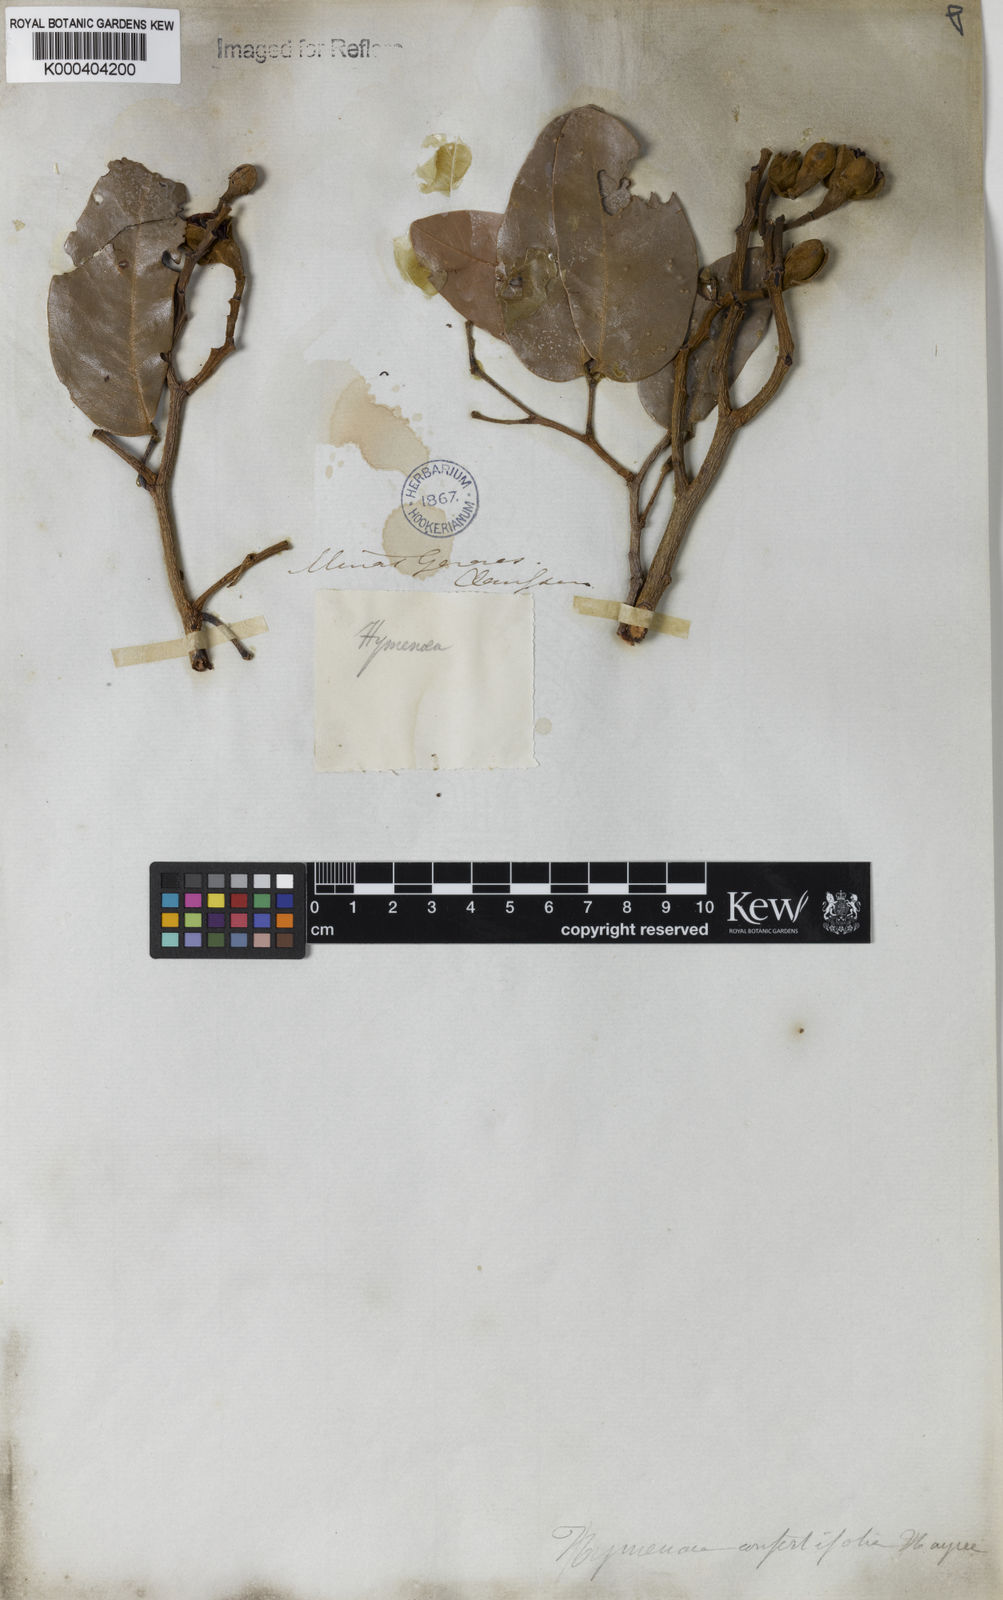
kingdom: Plantae
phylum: Tracheophyta
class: Magnoliopsida
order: Fabales
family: Fabaceae
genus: Hymenaea
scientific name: Hymenaea courbaril
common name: Brazilian copal
